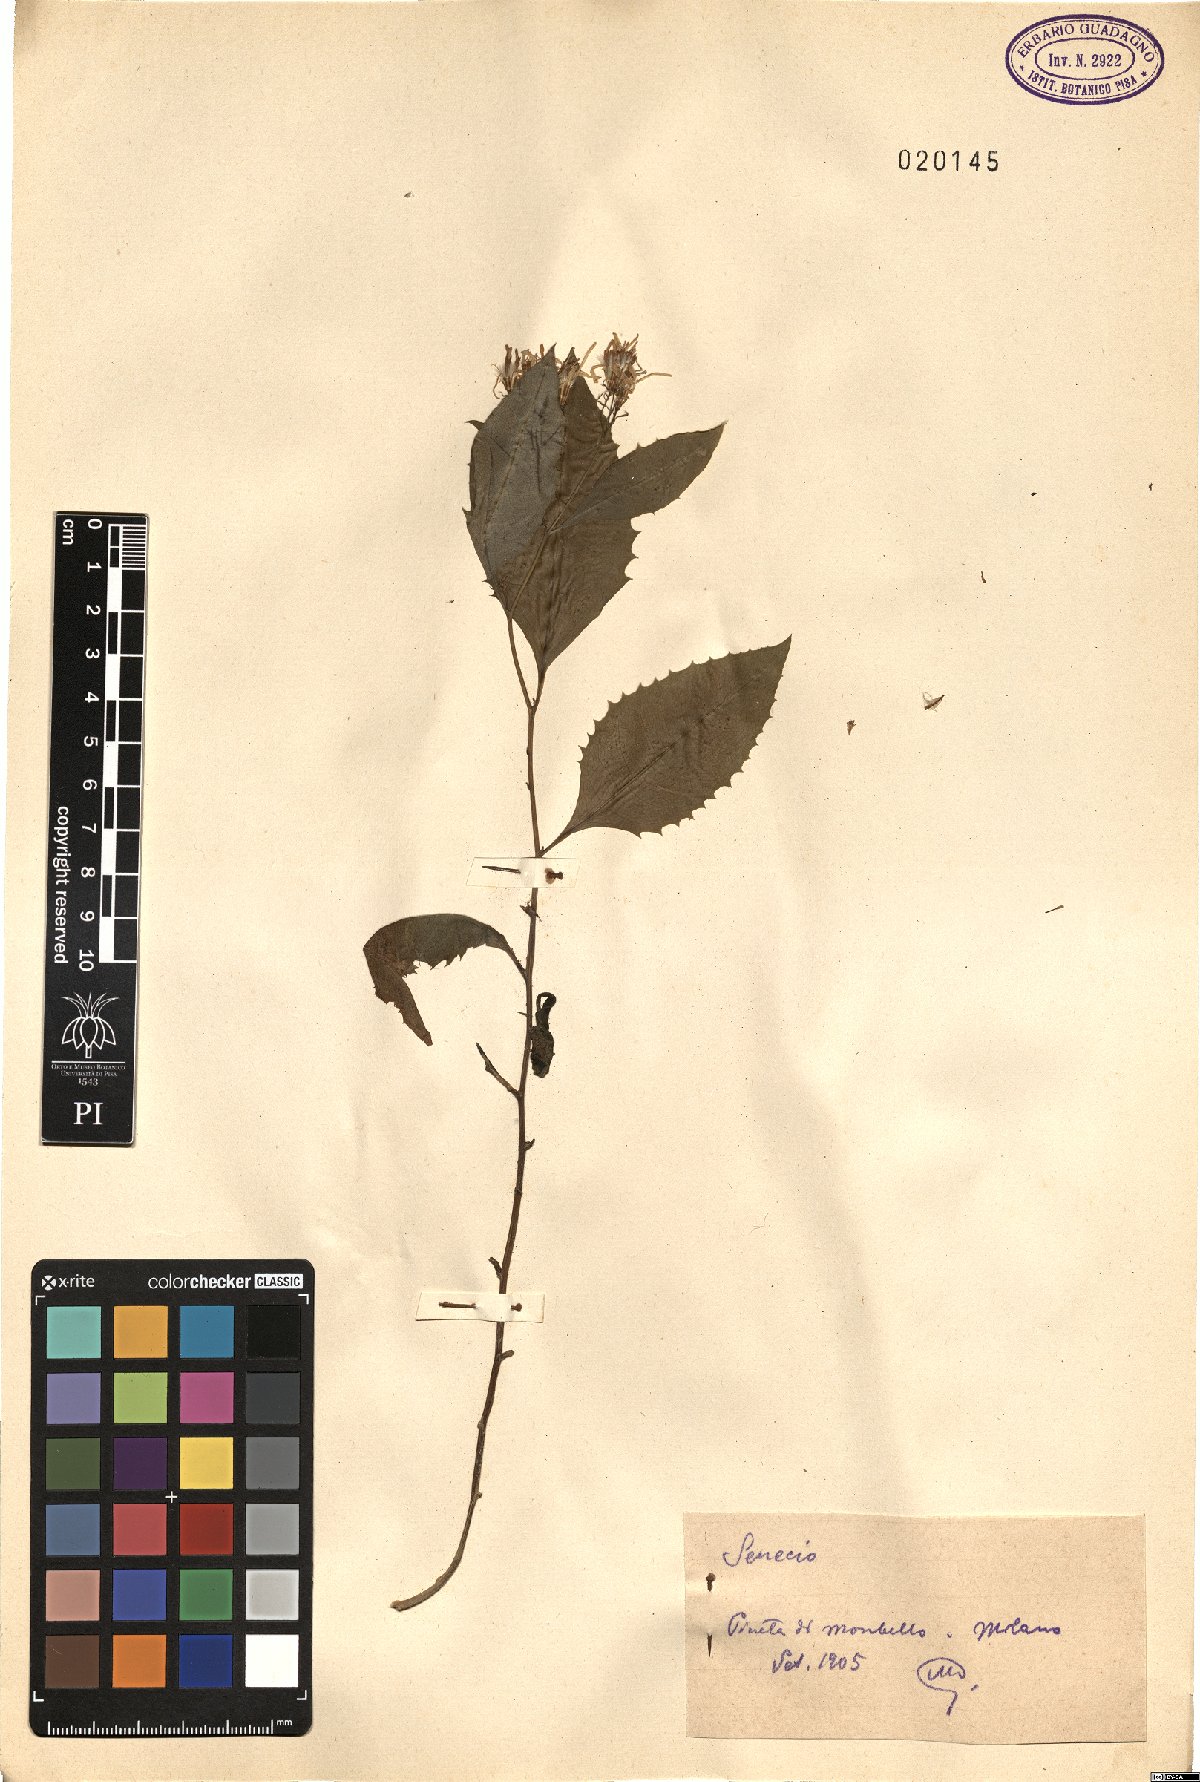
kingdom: Plantae
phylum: Tracheophyta
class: Magnoliopsida
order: Asterales
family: Asteraceae
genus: Senecio
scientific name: Senecio
